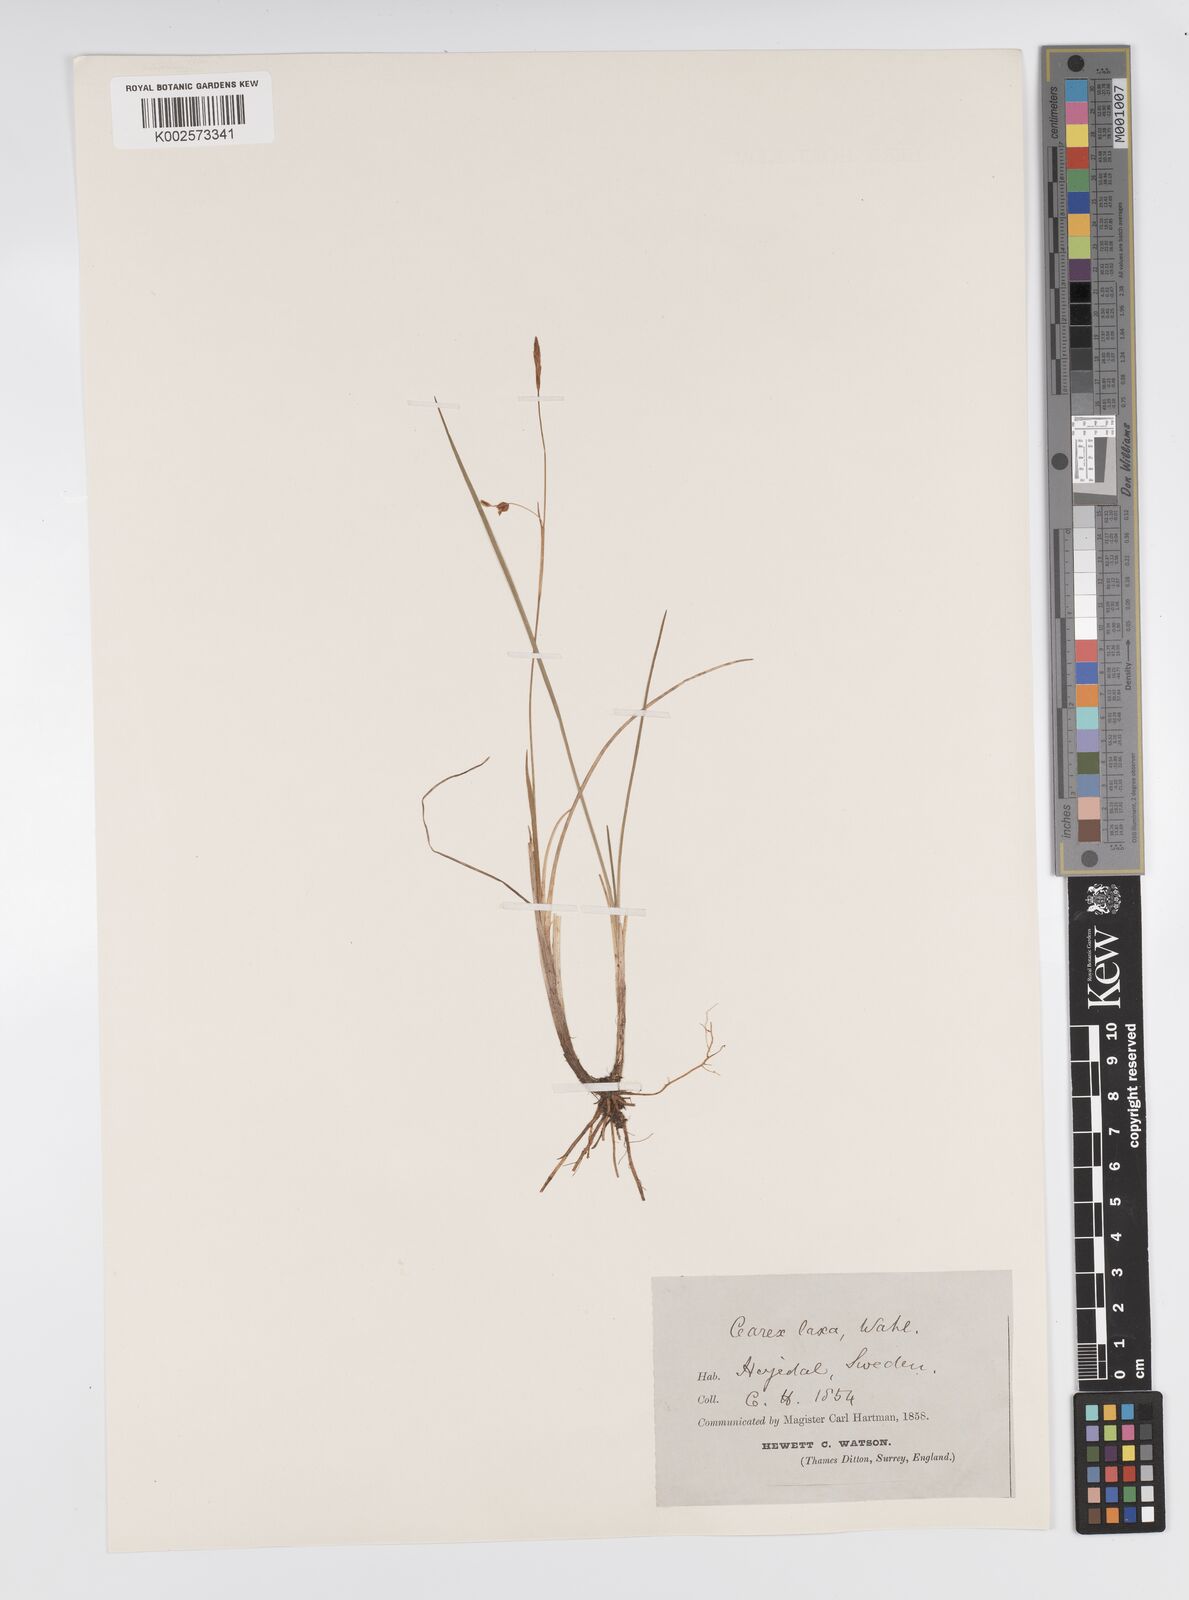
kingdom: Plantae
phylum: Tracheophyta
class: Liliopsida
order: Poales
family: Cyperaceae
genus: Carex
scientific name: Carex laxa
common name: Weak sedge
